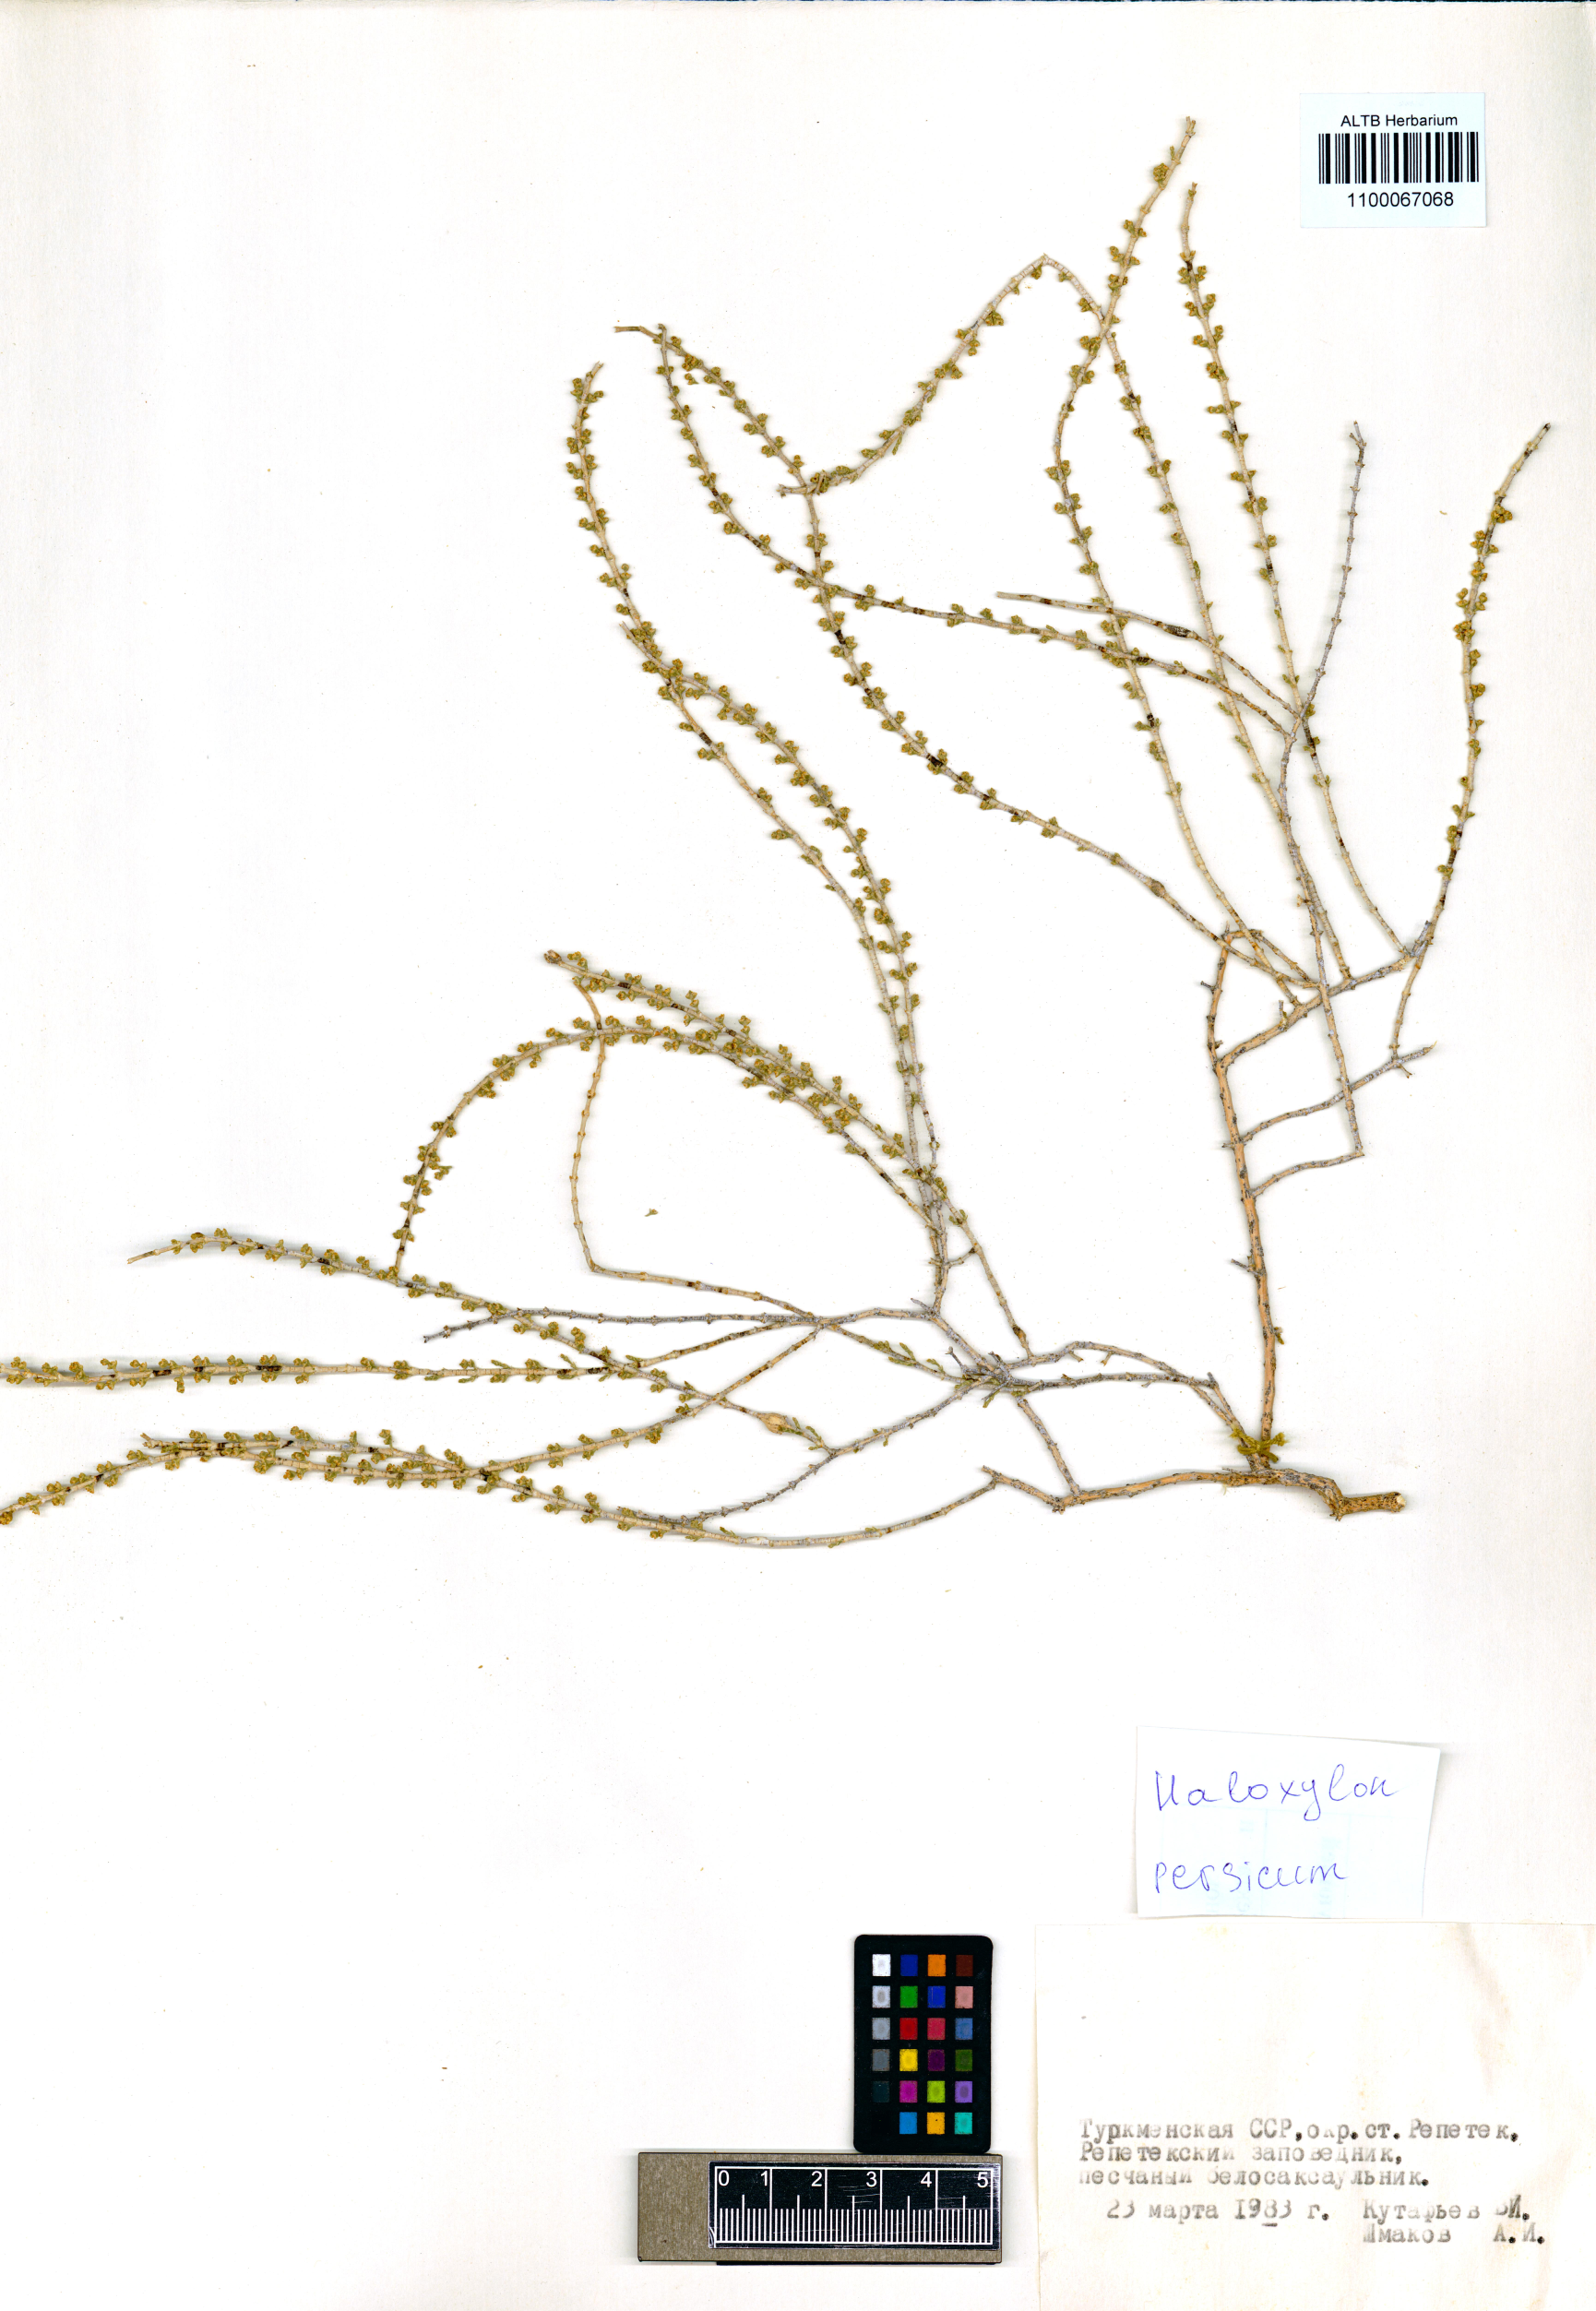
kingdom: Plantae
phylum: Tracheophyta
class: Magnoliopsida
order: Caryophyllales
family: Amaranthaceae
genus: Haloxylon
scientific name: Haloxylon persicum
